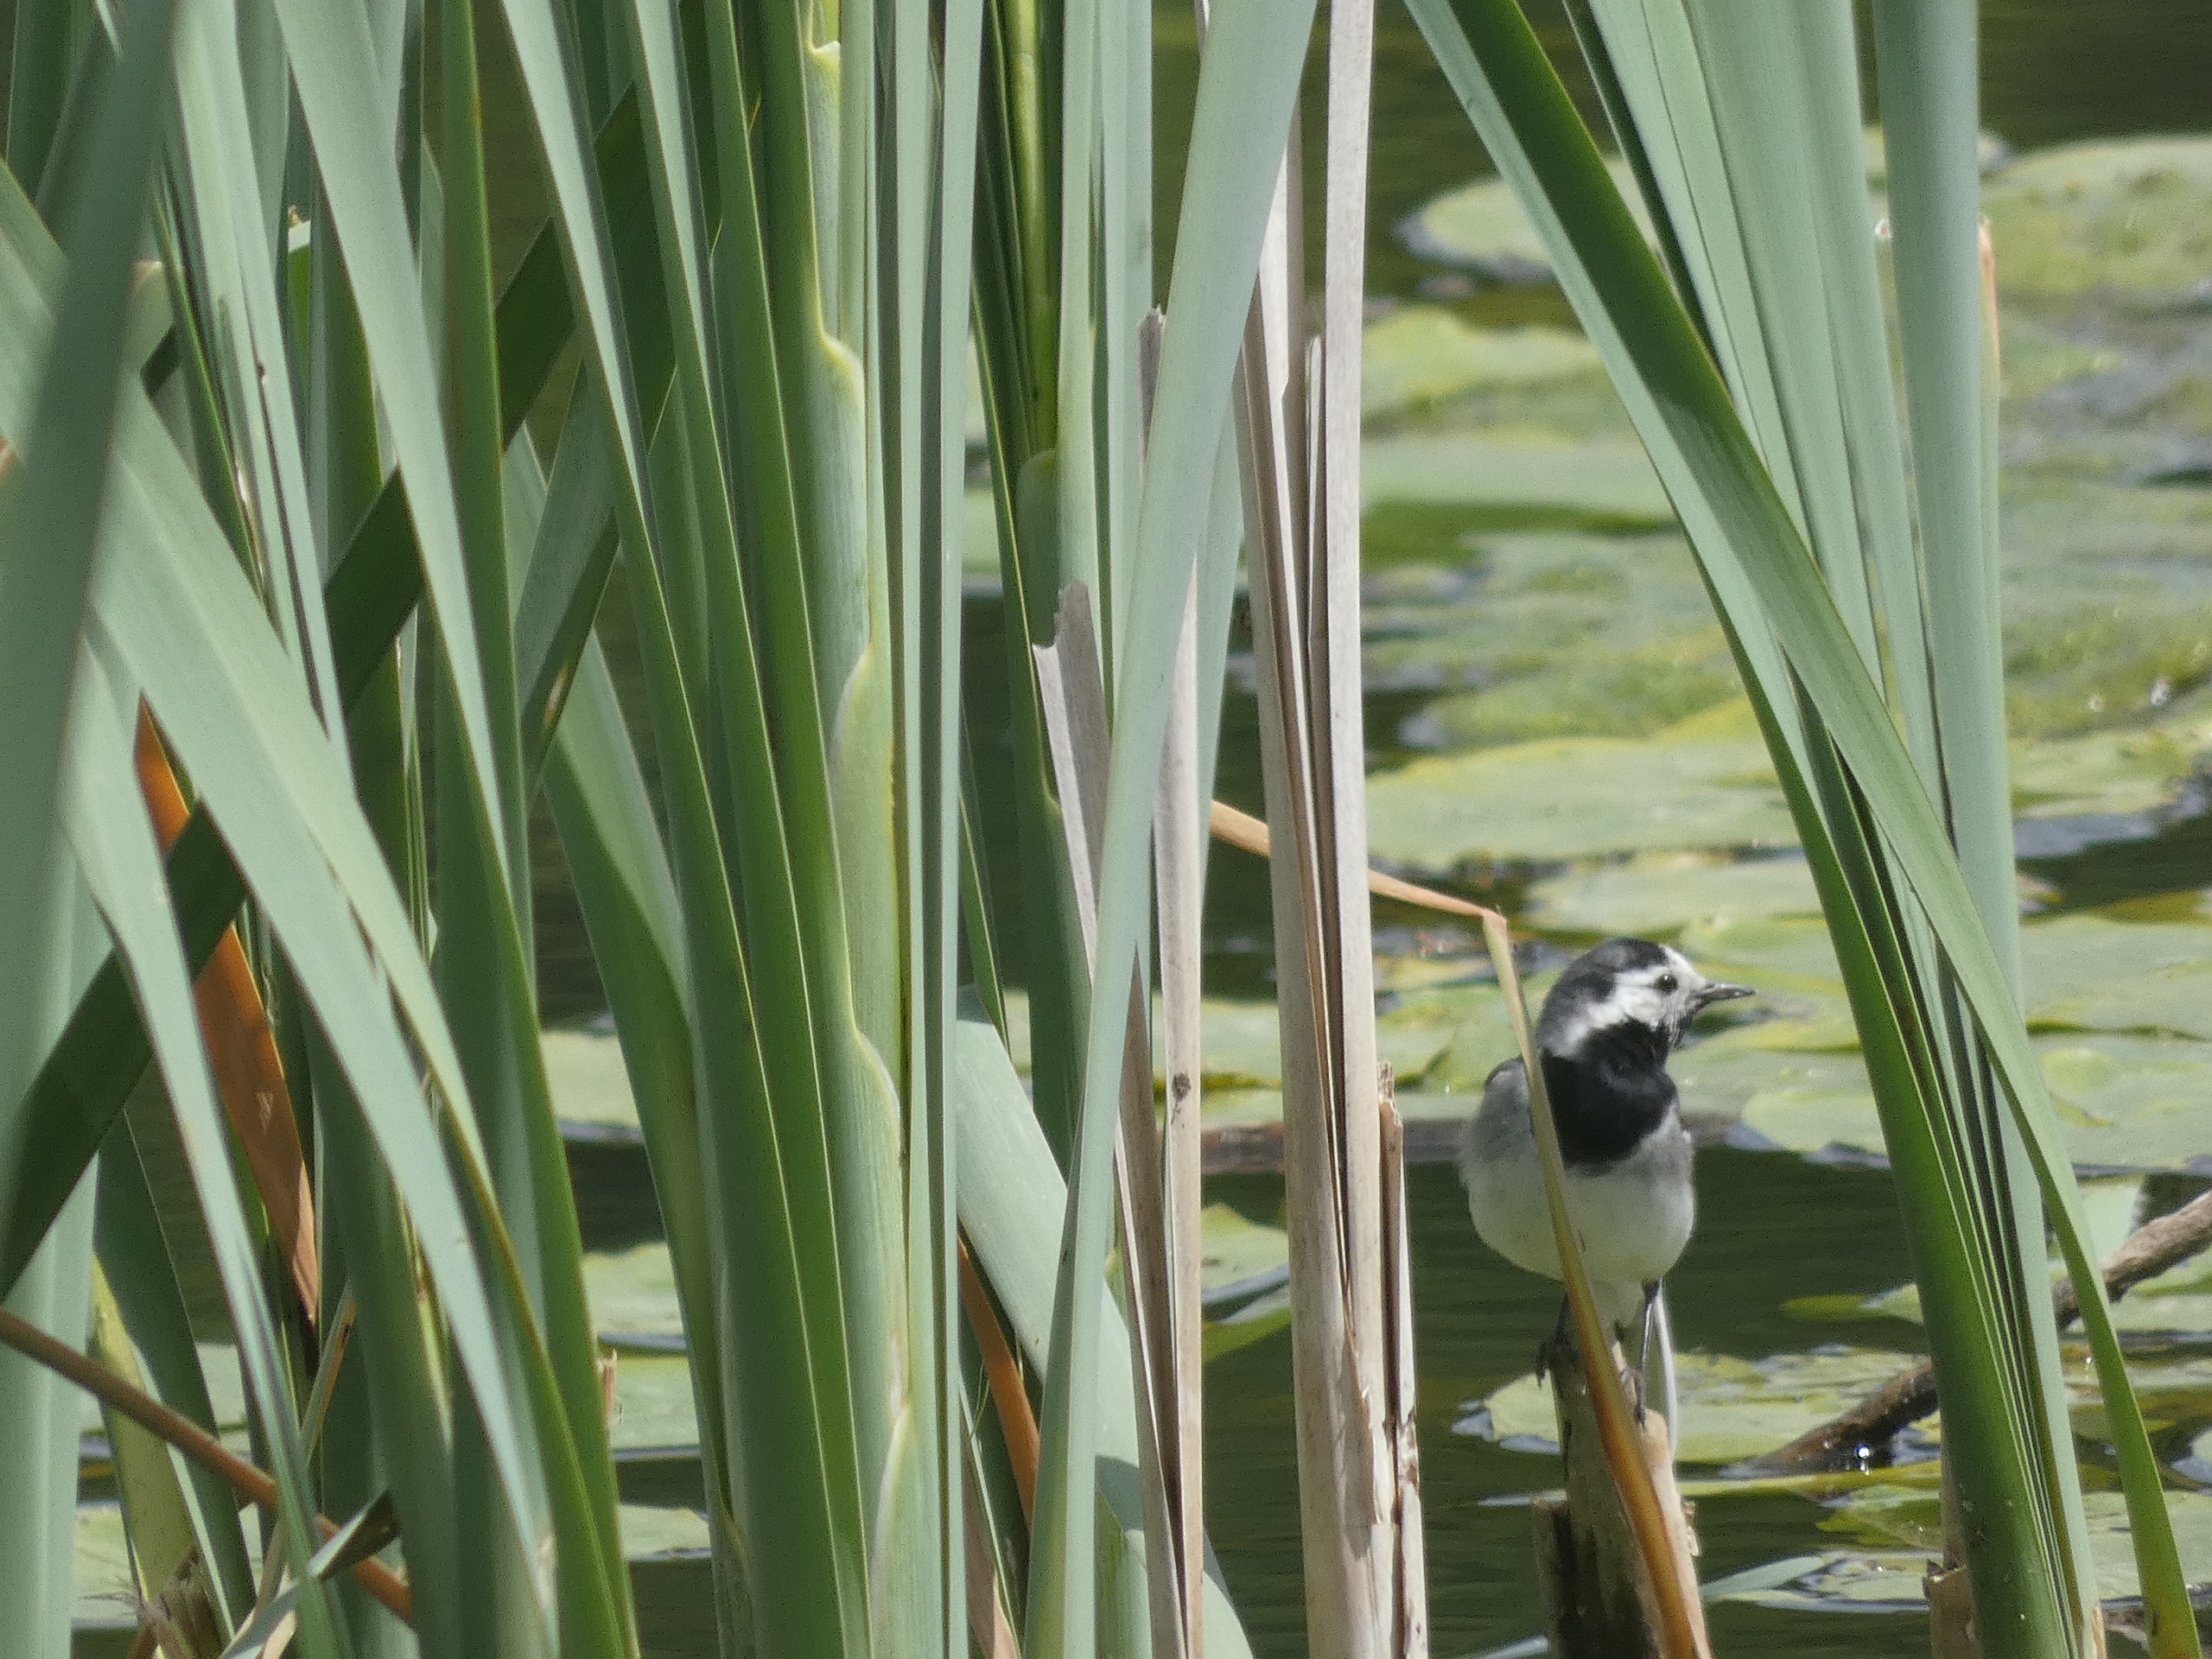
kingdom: Animalia
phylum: Chordata
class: Aves
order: Passeriformes
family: Motacillidae
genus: Motacilla
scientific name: Motacilla alba
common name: Hvid vipstjert
